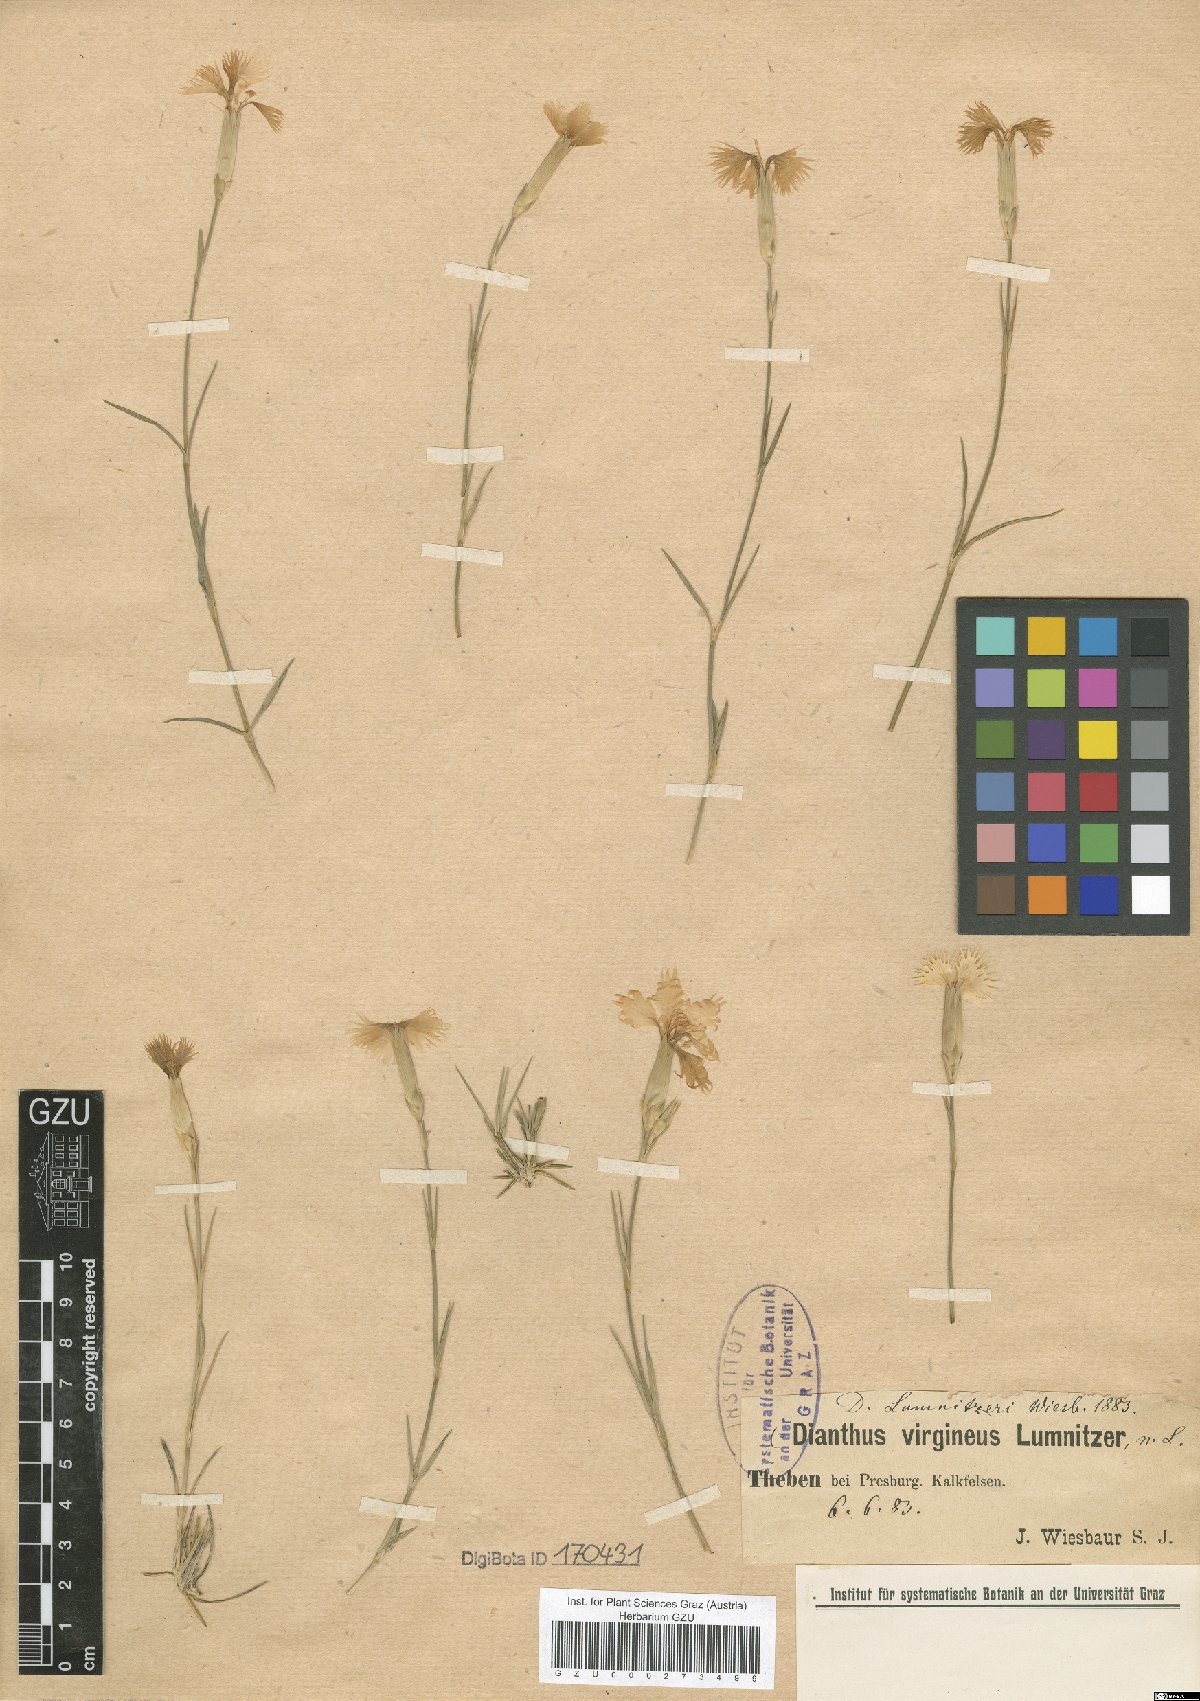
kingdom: Plantae
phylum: Tracheophyta
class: Magnoliopsida
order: Caryophyllales
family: Caryophyllaceae
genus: Dianthus
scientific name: Dianthus praecox
